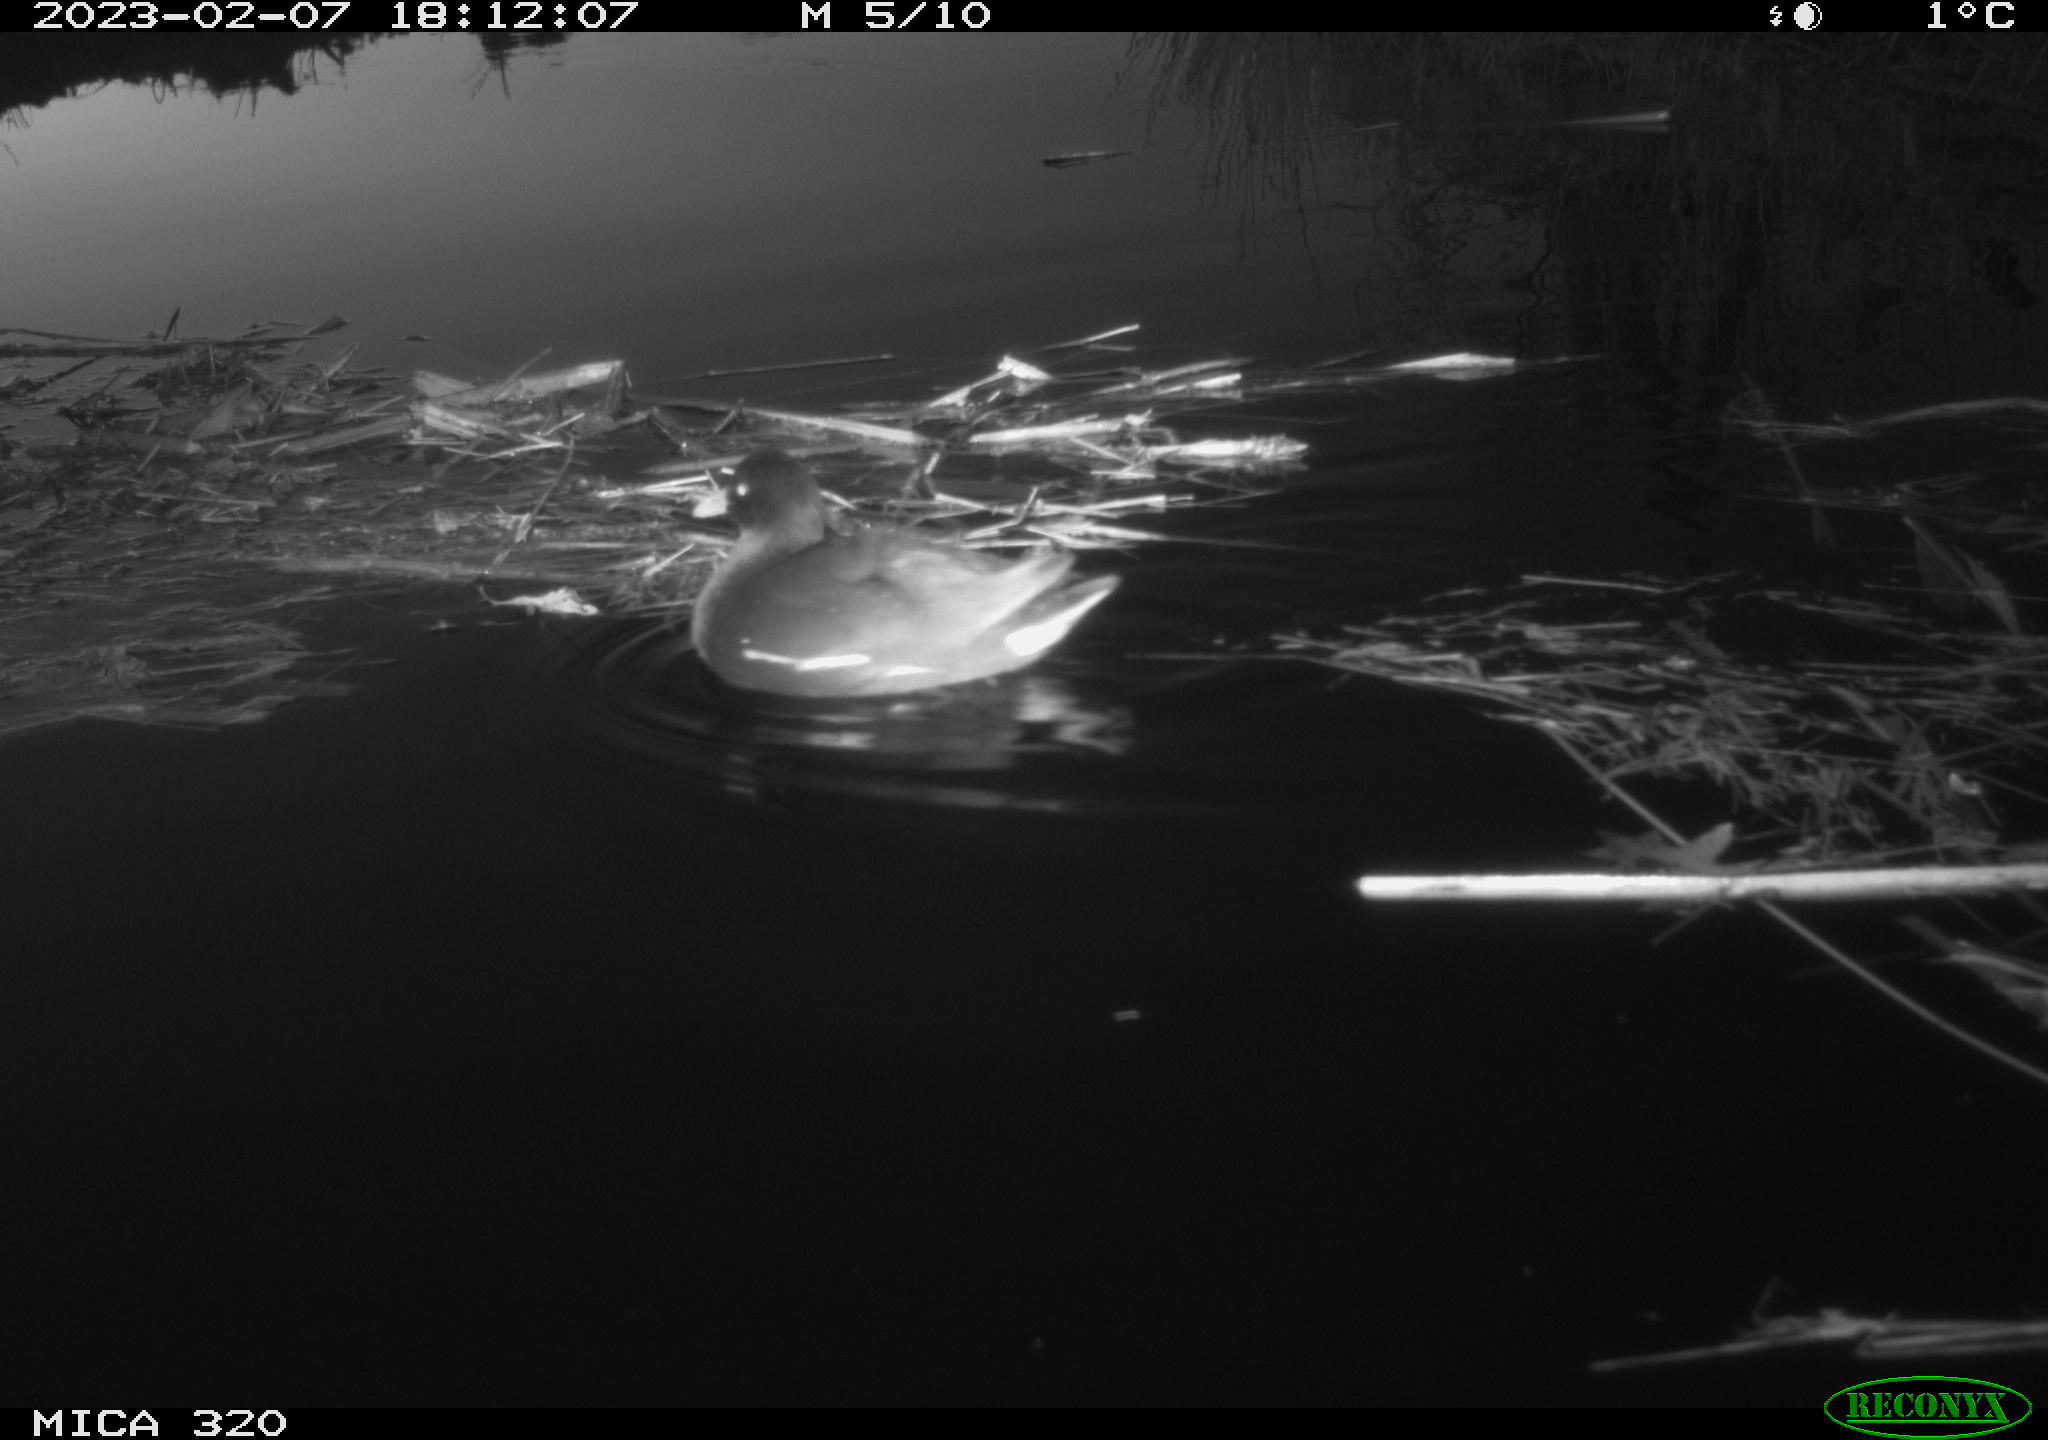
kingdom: Animalia
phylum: Chordata
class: Aves
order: Gruiformes
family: Rallidae
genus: Gallinula
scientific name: Gallinula chloropus
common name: Common moorhen
